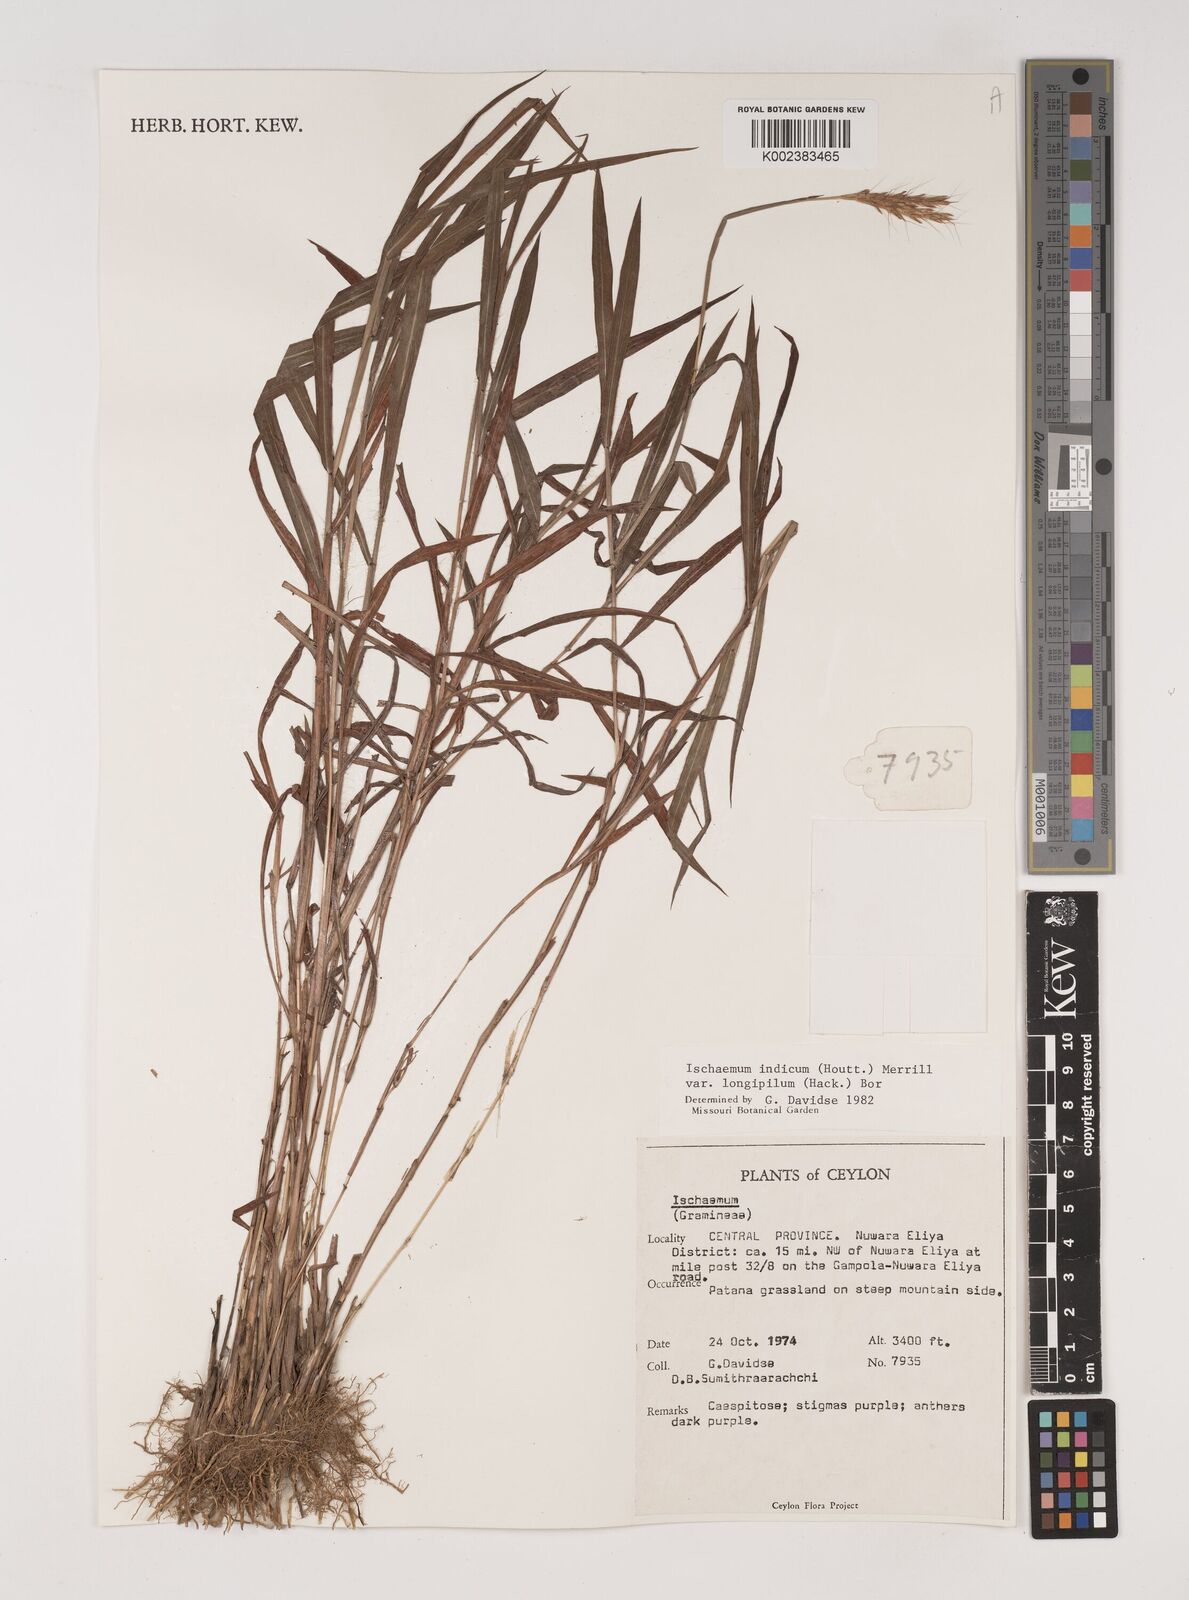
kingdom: Plantae
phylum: Tracheophyta
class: Liliopsida
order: Poales
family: Poaceae
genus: Polytrias
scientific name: Polytrias indica
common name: Indian murainagrass
